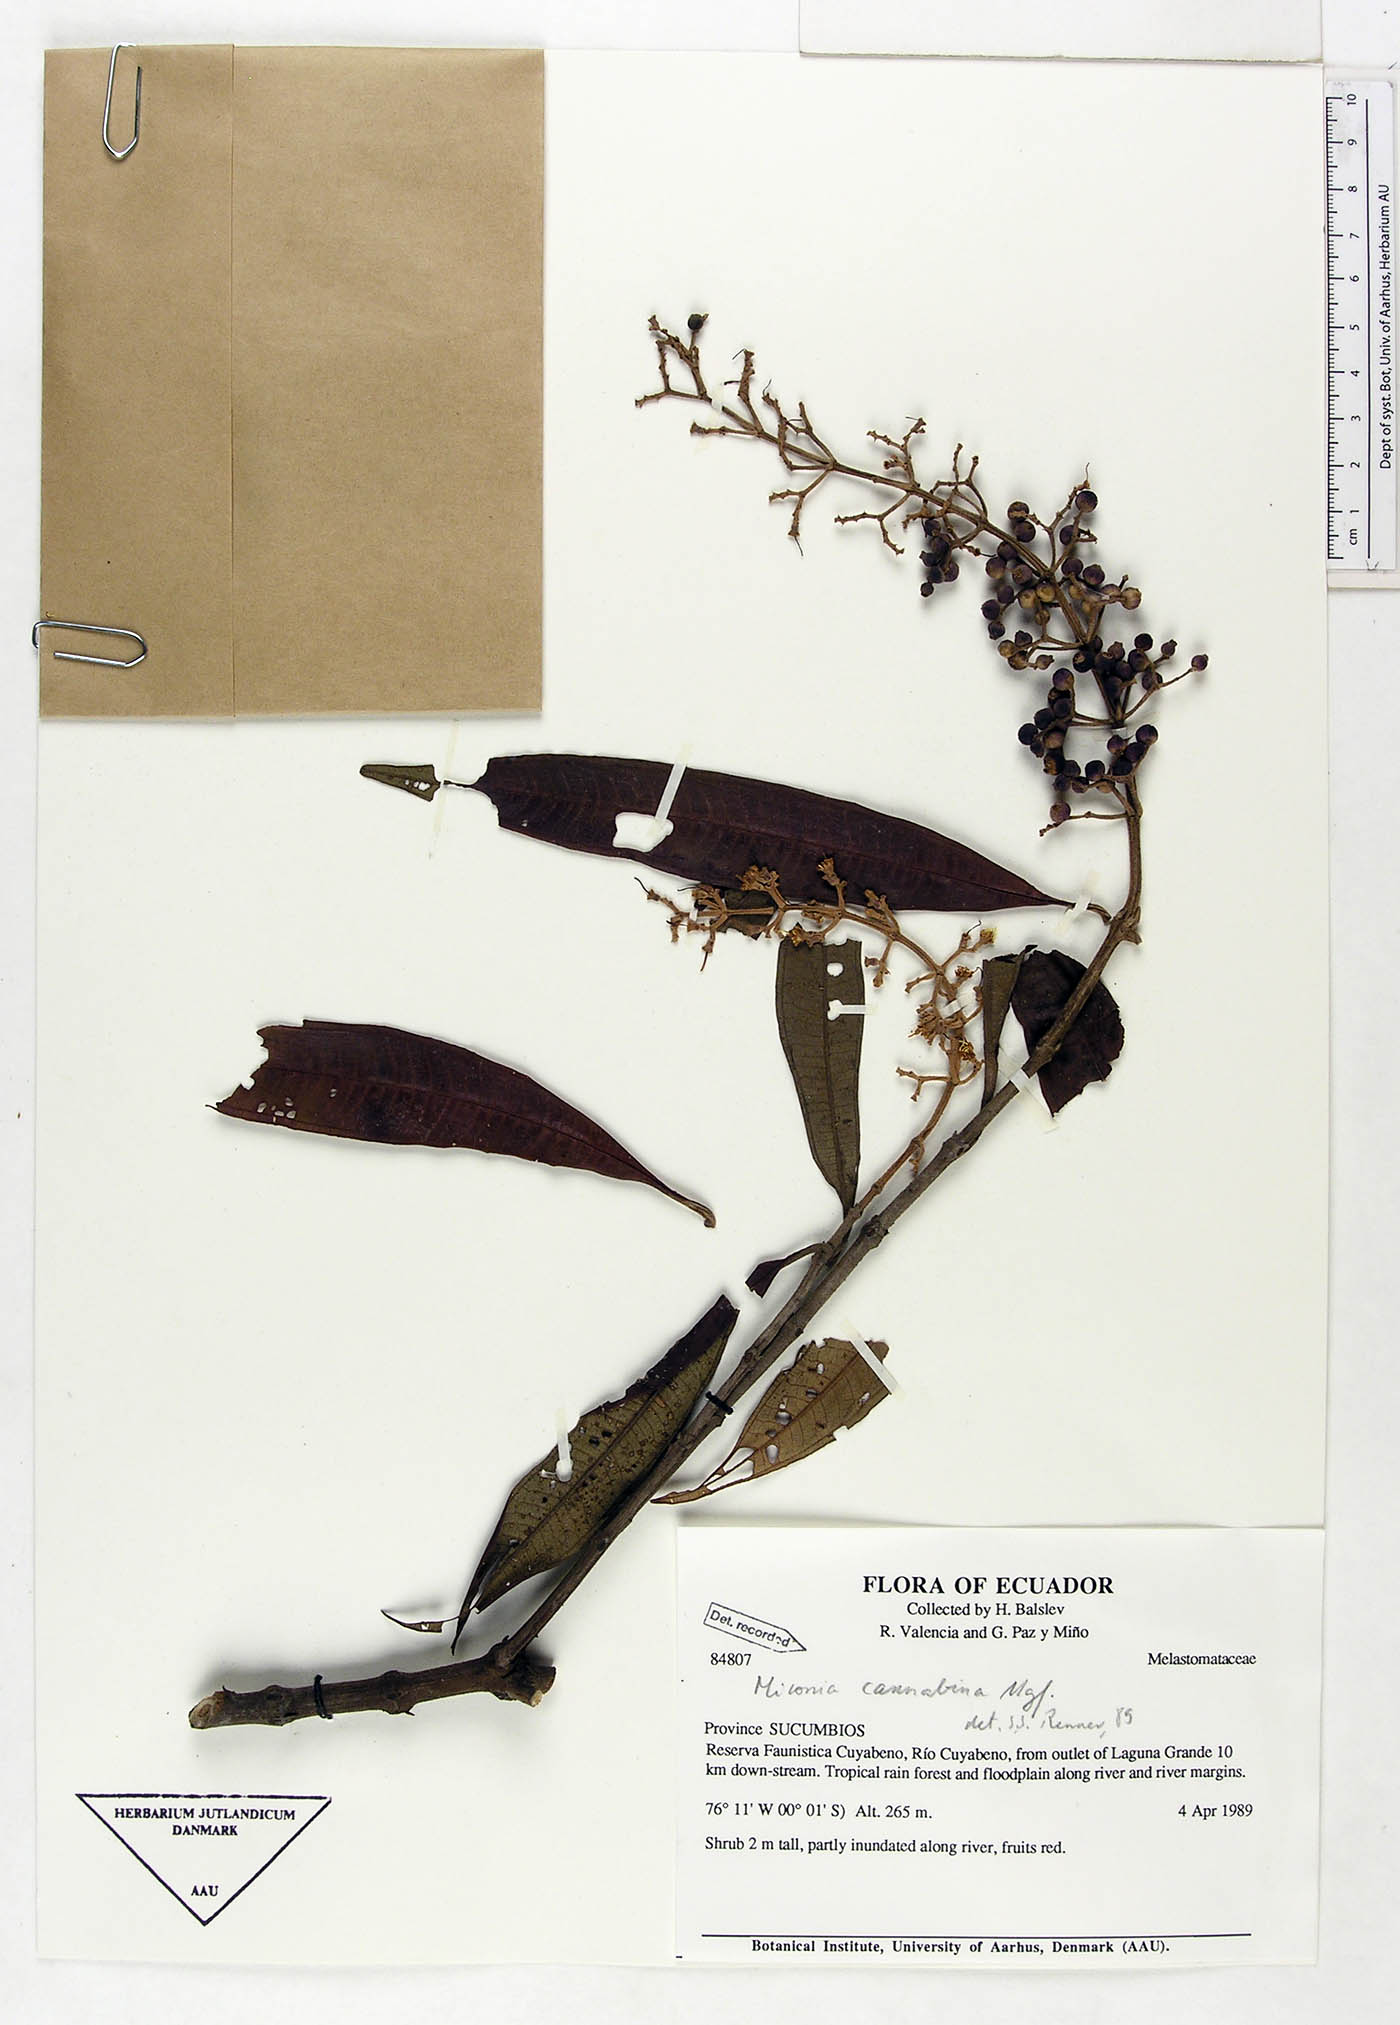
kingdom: Plantae
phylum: Tracheophyta
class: Magnoliopsida
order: Myrtales
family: Melastomataceae
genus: Miconia
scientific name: Miconia cannabina
